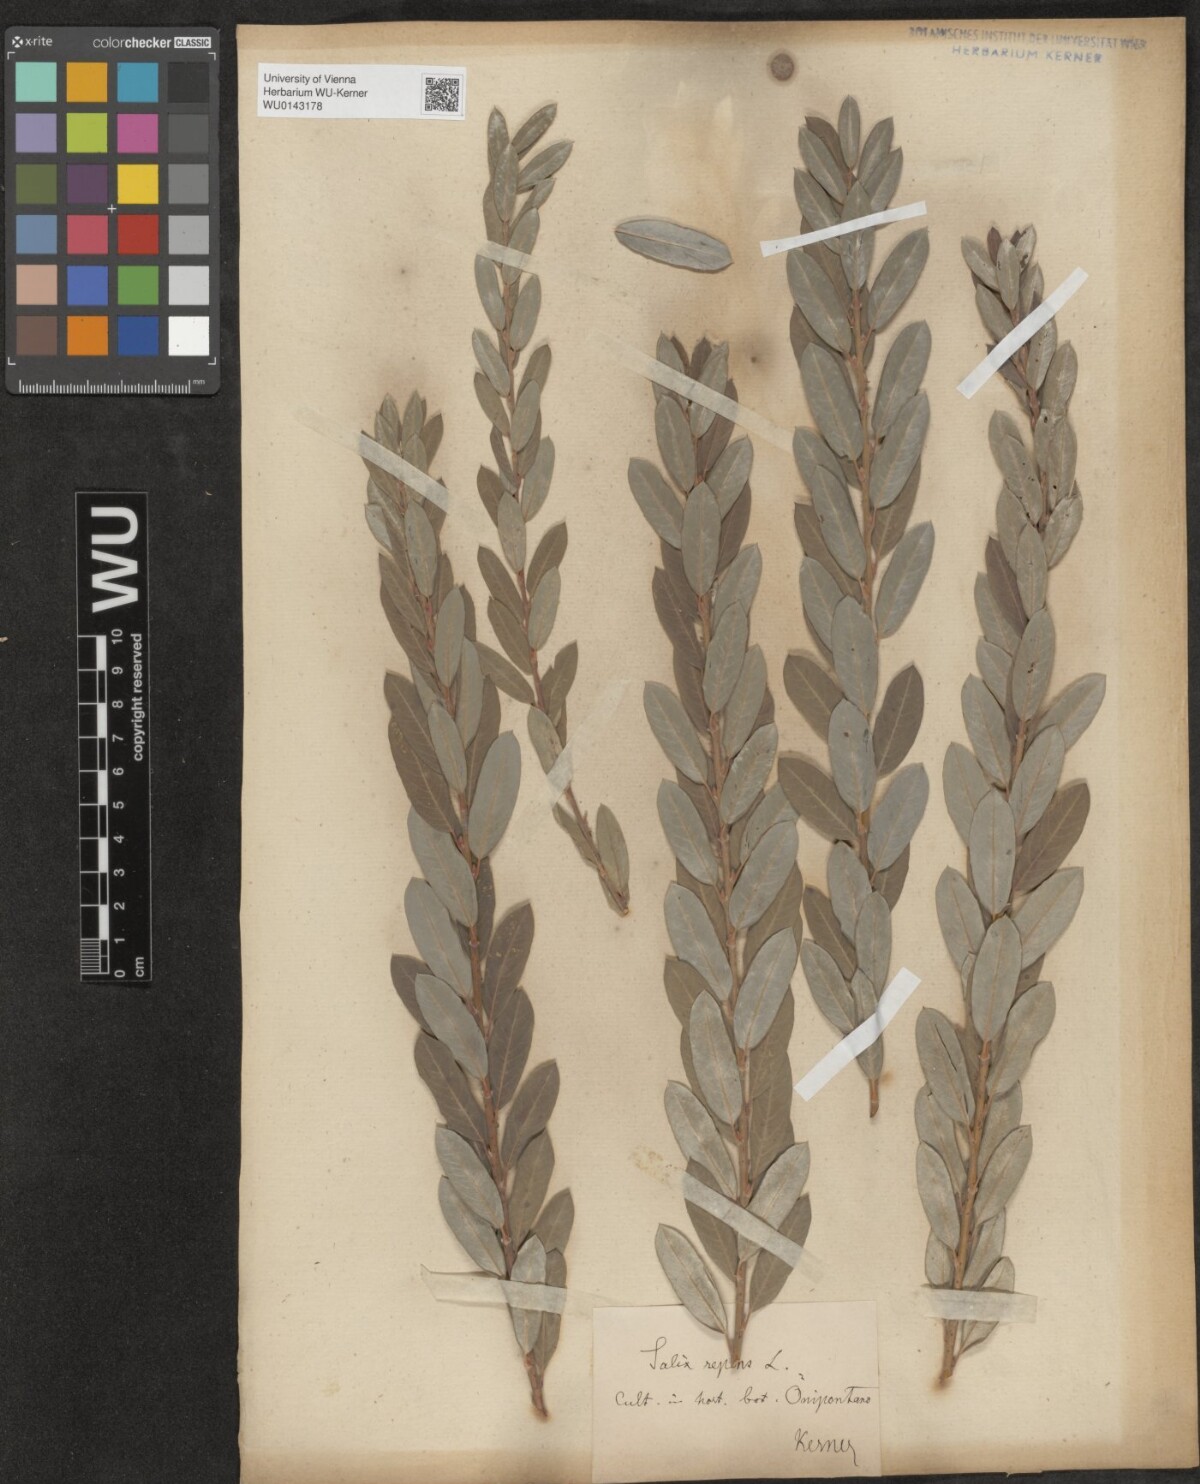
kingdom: Plantae
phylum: Tracheophyta
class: Magnoliopsida
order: Malpighiales
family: Salicaceae
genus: Salix
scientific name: Salix repens
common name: Creeping willow
